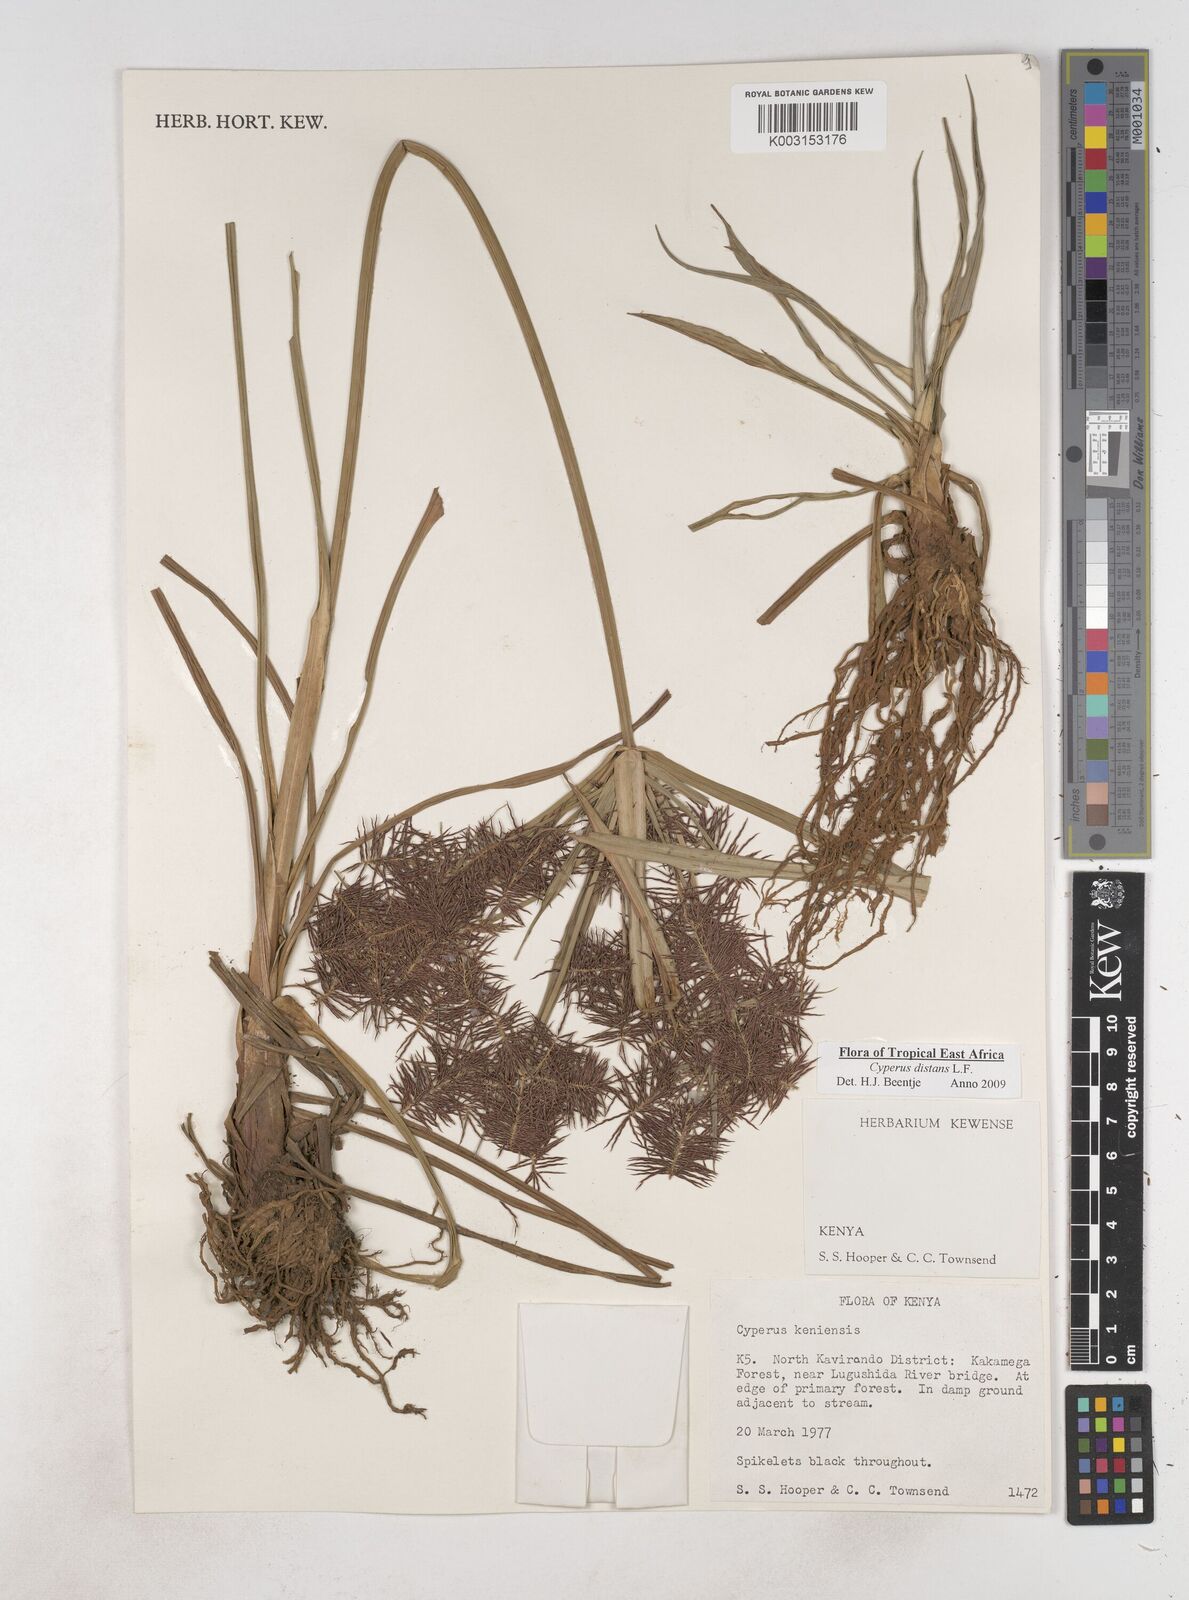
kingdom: Plantae
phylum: Tracheophyta
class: Liliopsida
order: Poales
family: Cyperaceae
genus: Cyperus
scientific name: Cyperus distans
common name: Slender cyperus
